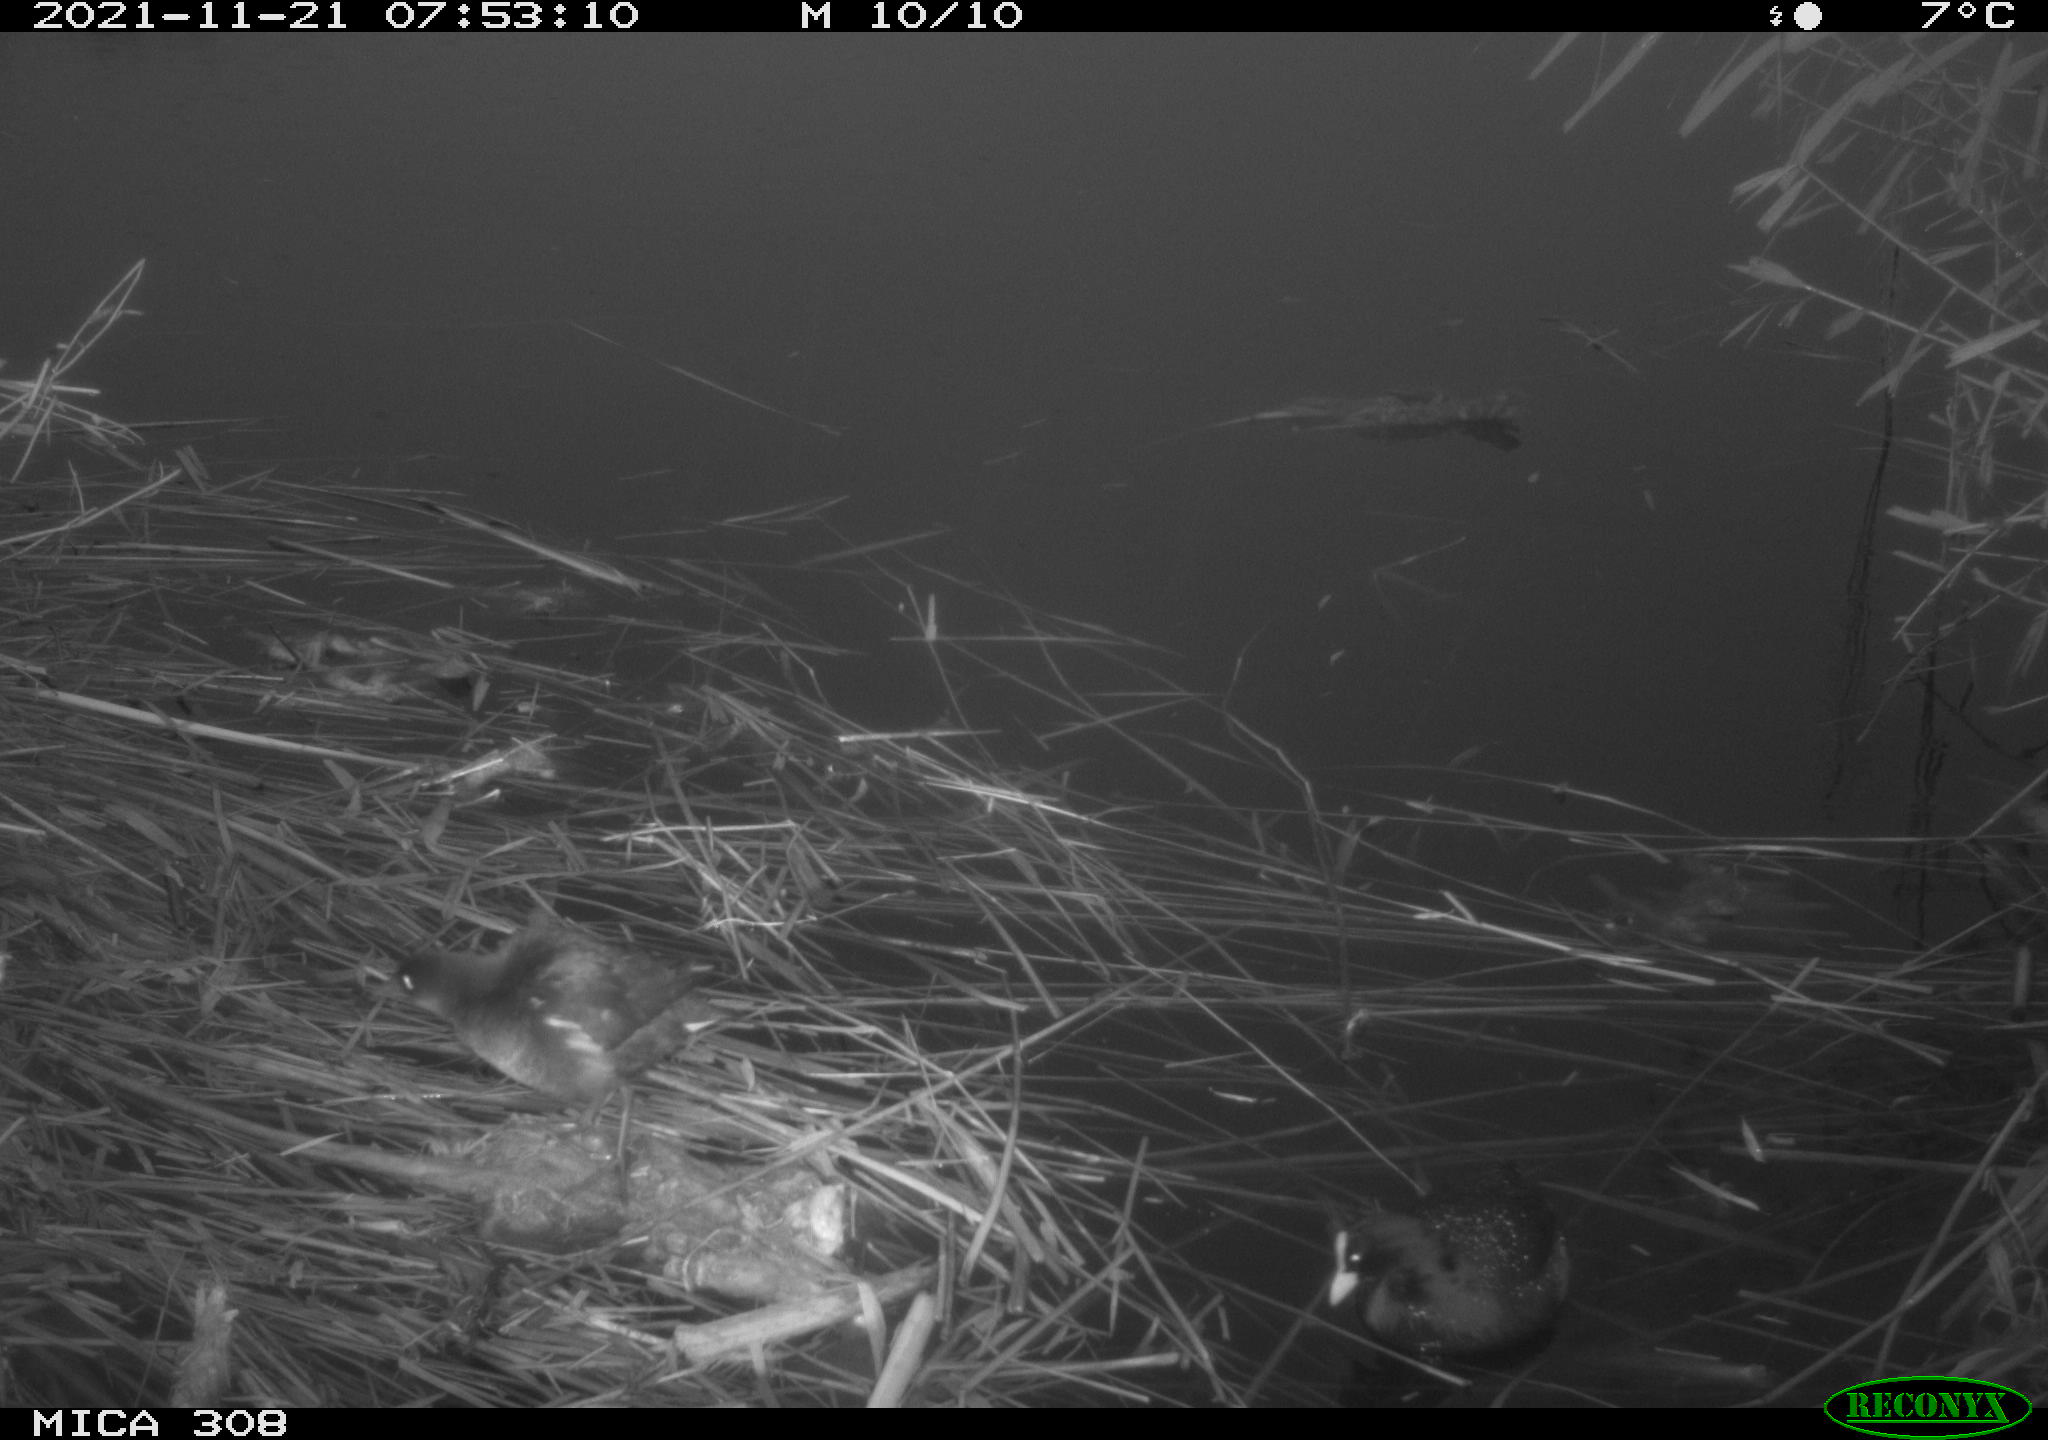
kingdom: Animalia
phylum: Chordata
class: Aves
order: Gruiformes
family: Rallidae
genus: Gallinula
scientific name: Gallinula chloropus
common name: Common moorhen
